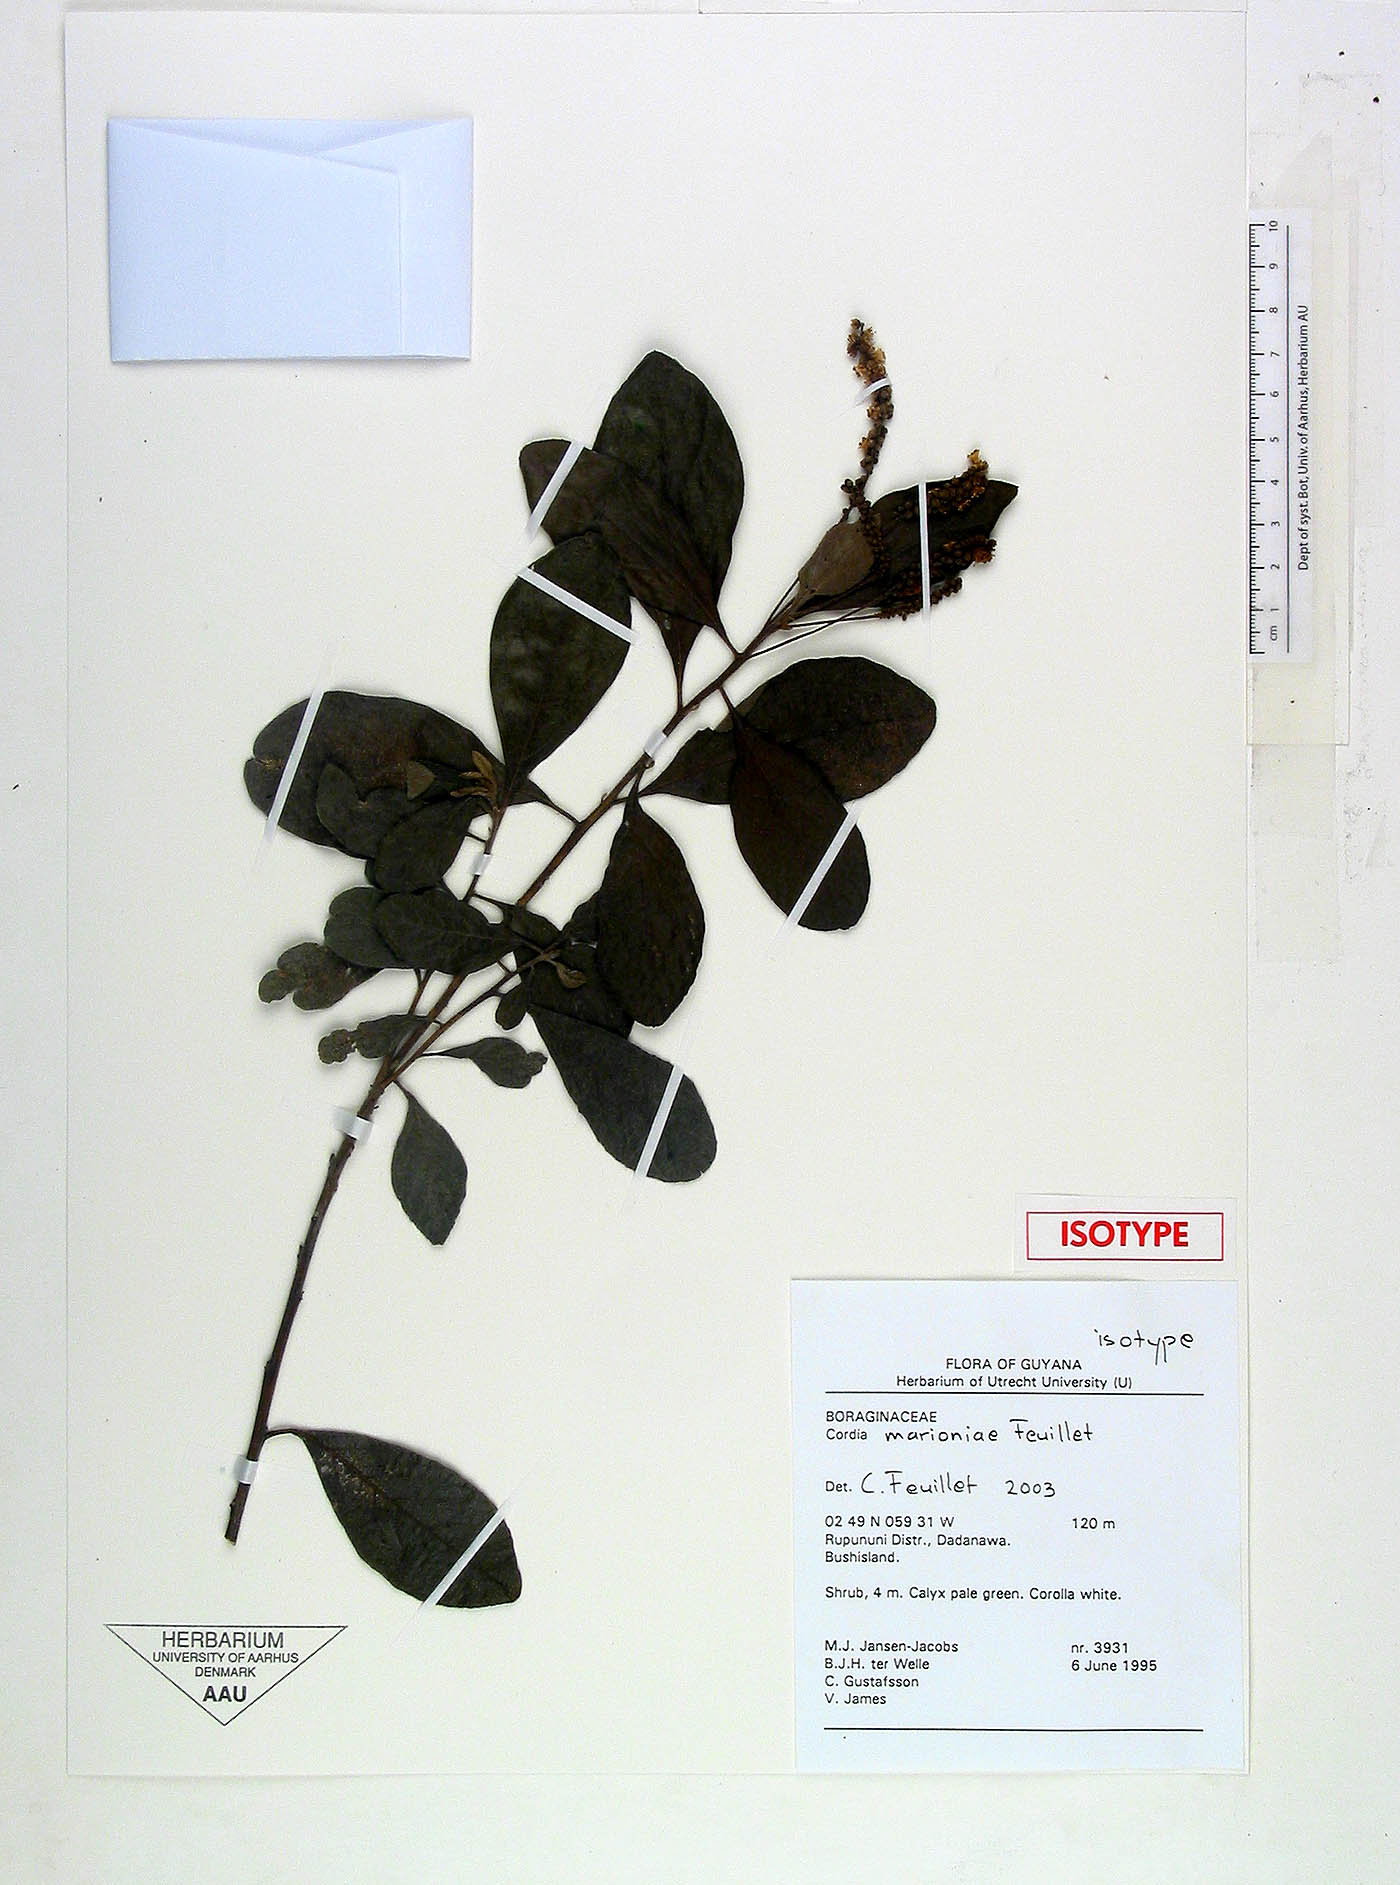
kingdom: Plantae
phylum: Tracheophyta
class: Magnoliopsida
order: Boraginales
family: Cordiaceae
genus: Varronia
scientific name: Varronia marioniae
